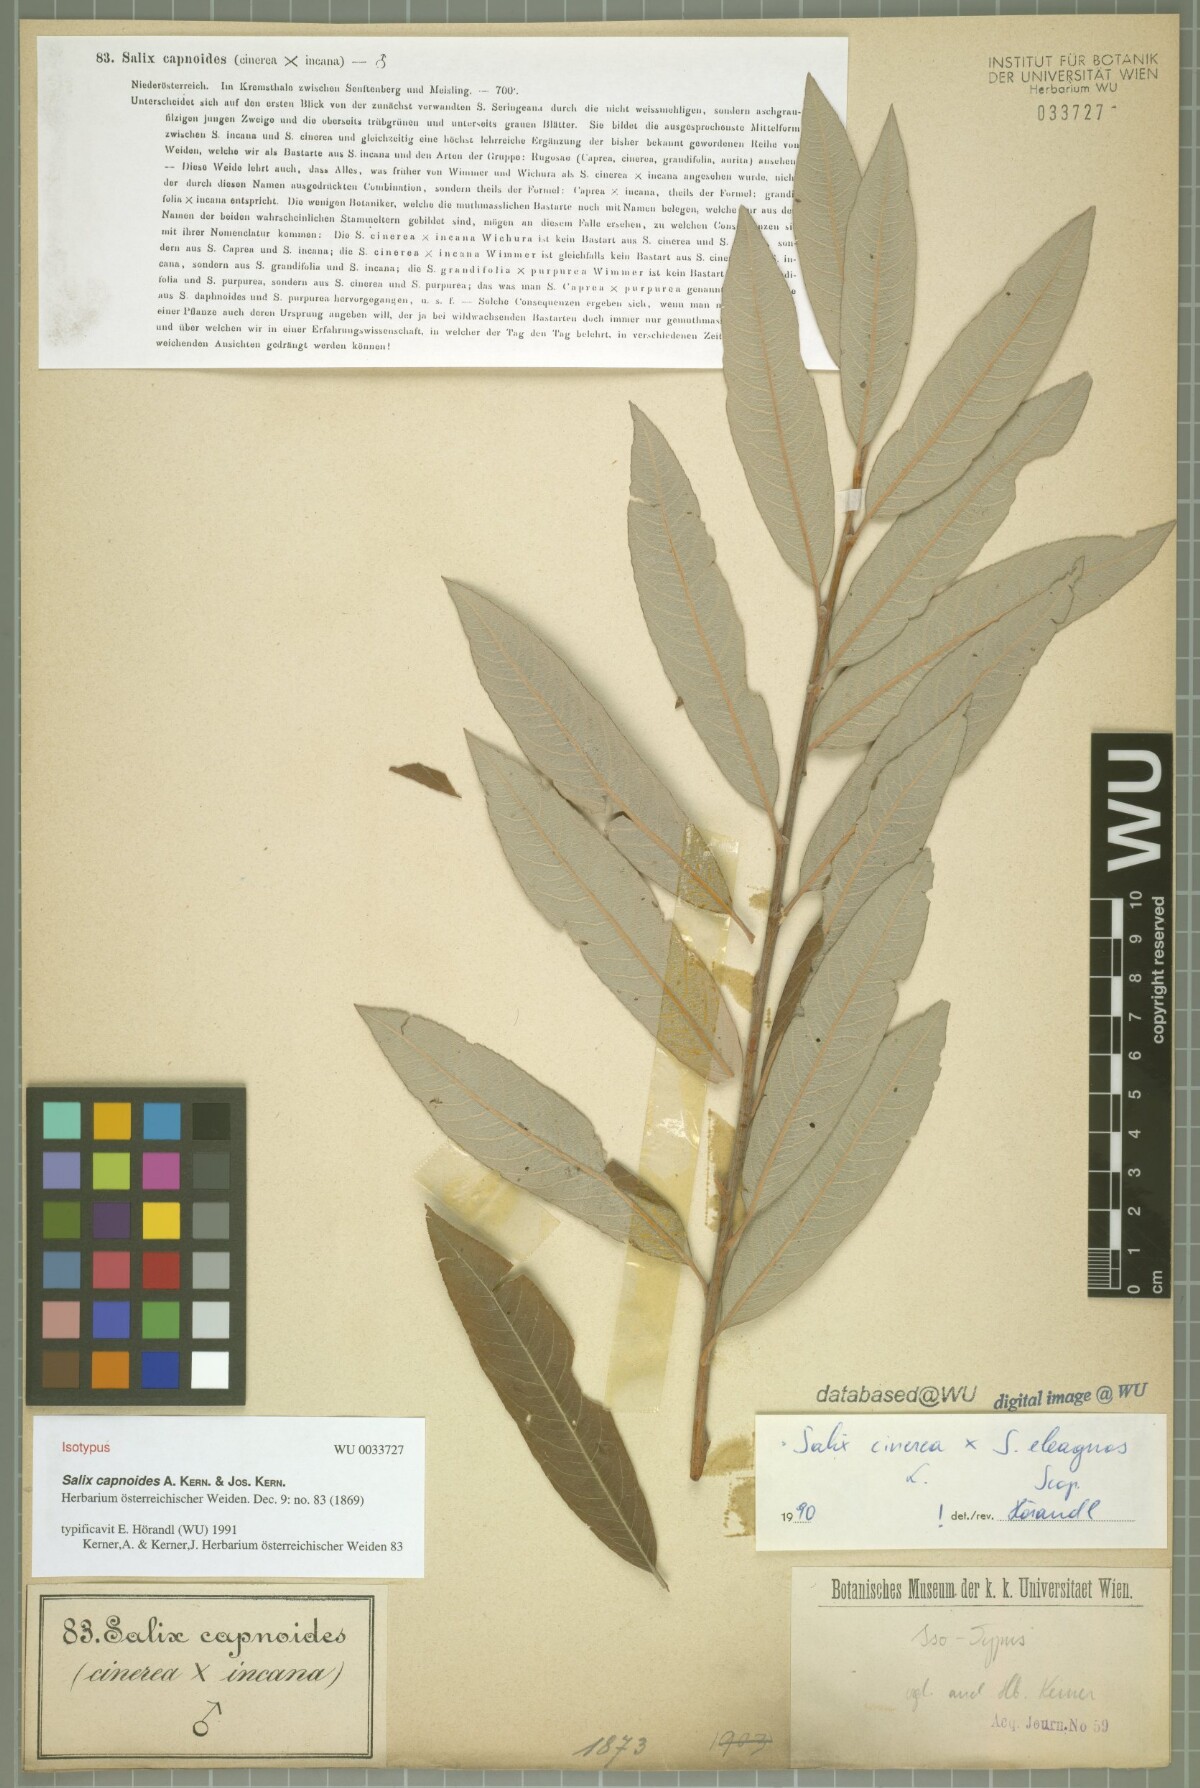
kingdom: Plantae
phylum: Tracheophyta
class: Magnoliopsida
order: Malpighiales
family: Salicaceae
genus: Salix
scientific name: Salix eleagnos
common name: Elaeagnus willow
